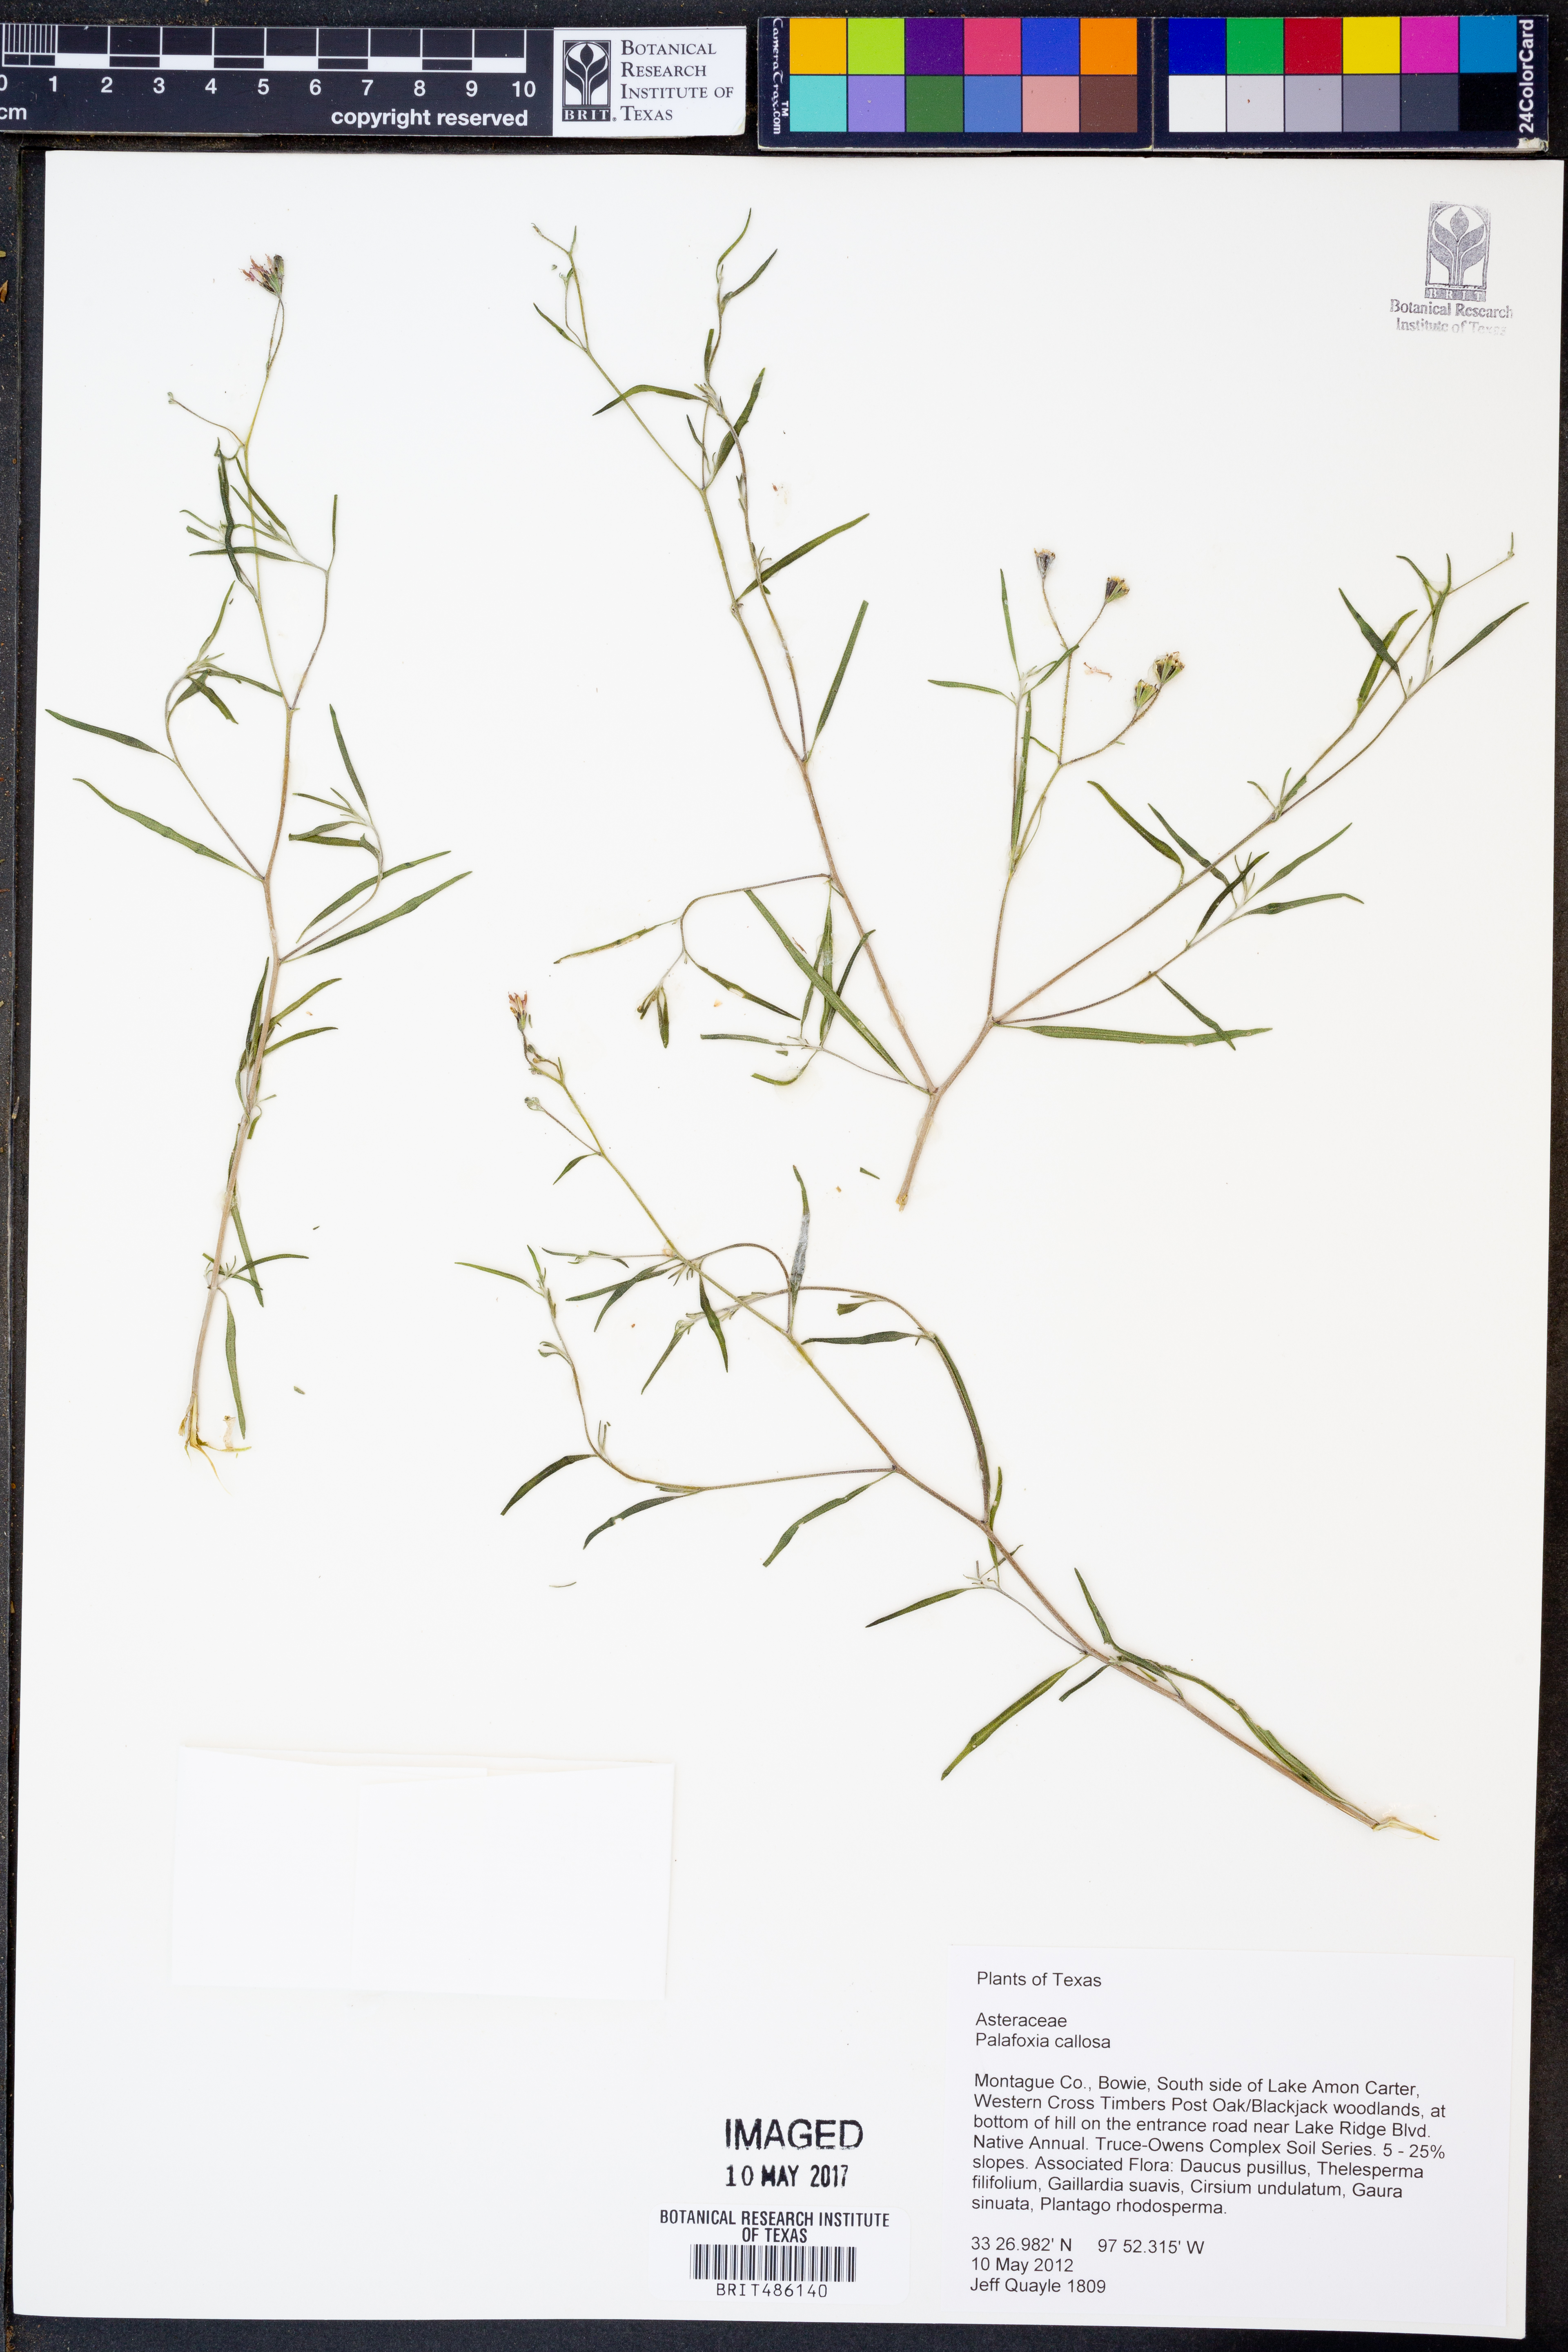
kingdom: Plantae
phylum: Tracheophyta
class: Magnoliopsida
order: Asterales
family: Asteraceae
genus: Palafoxia
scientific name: Palafoxia callosa
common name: Small palafox
